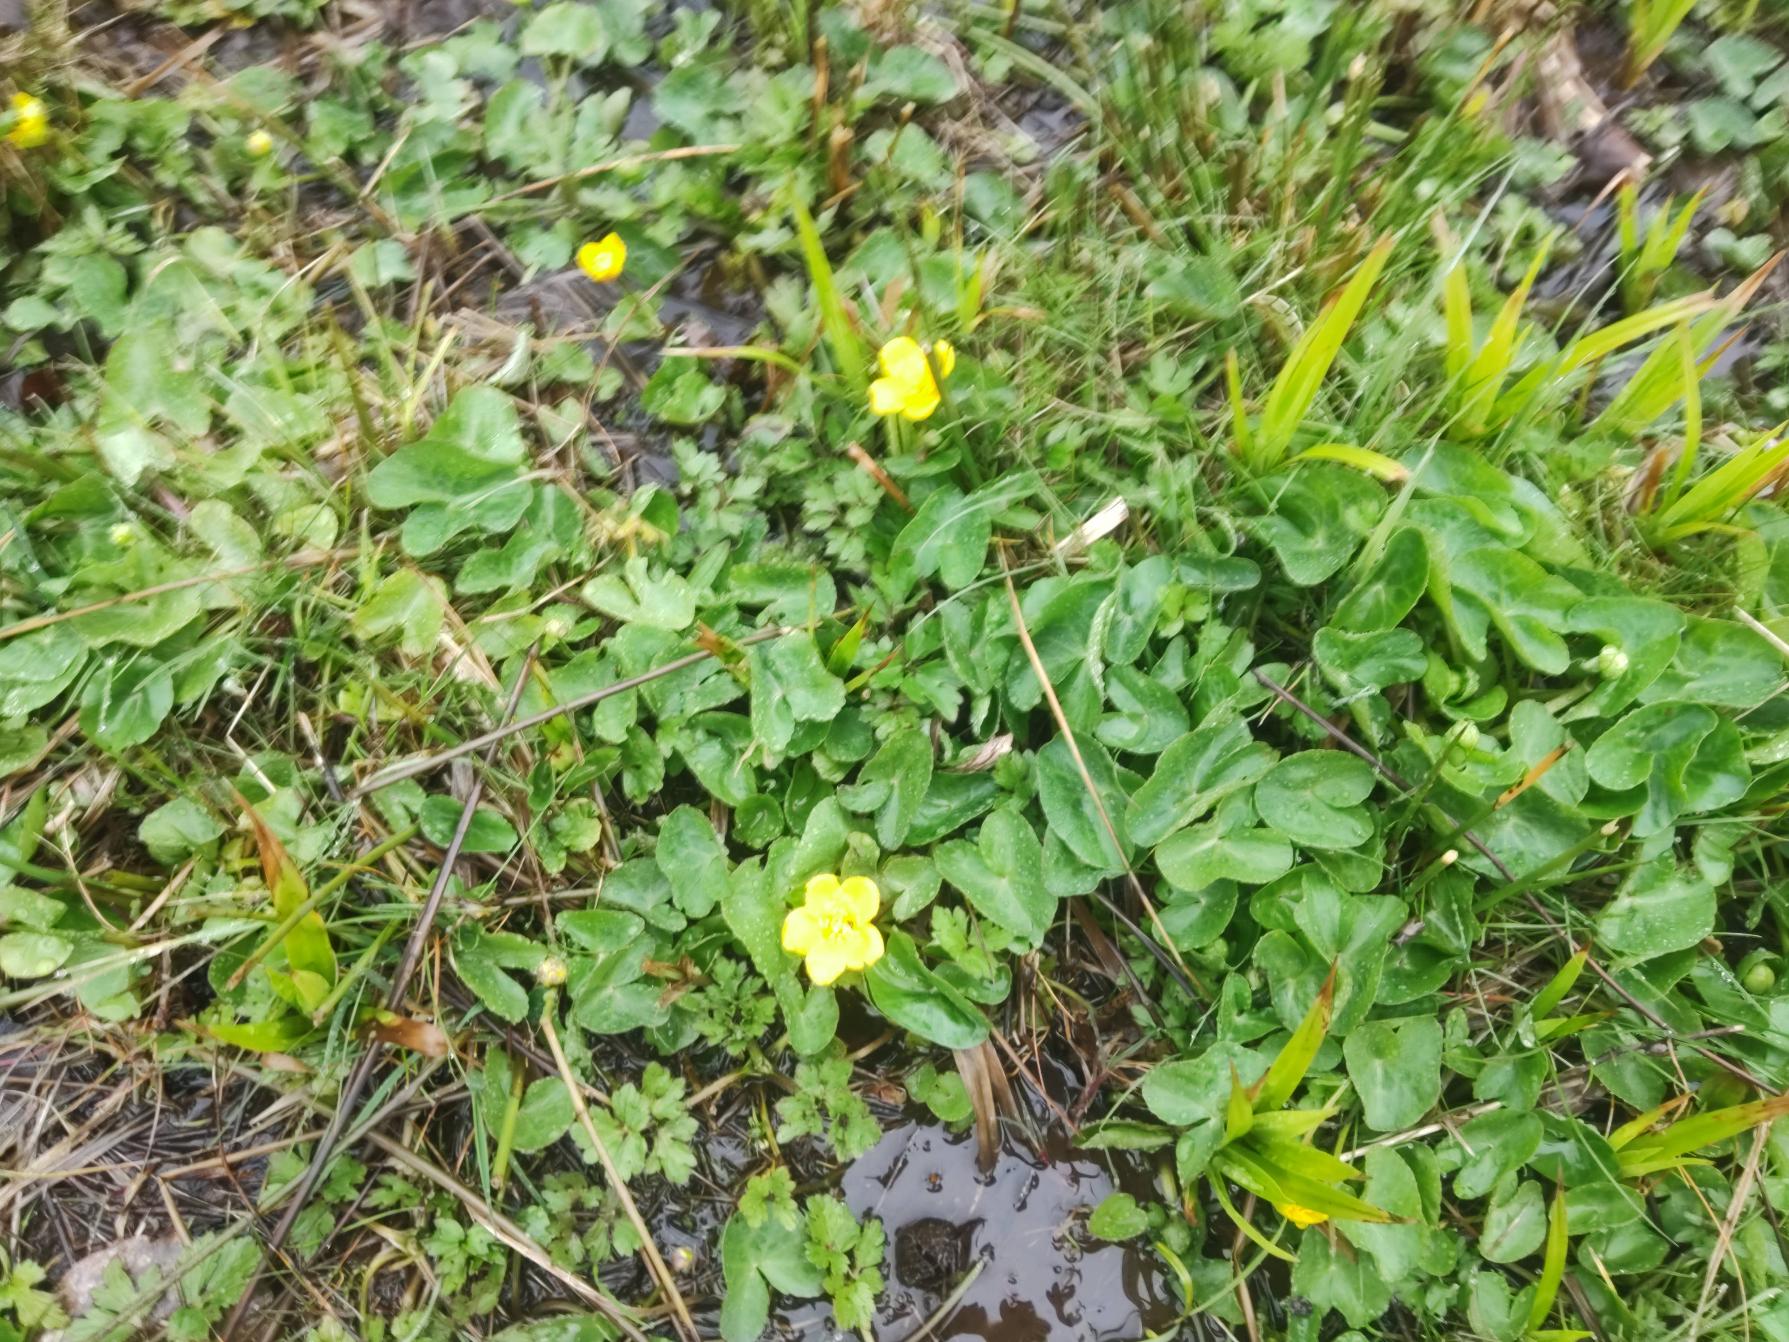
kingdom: Plantae
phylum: Tracheophyta
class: Magnoliopsida
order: Ranunculales
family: Ranunculaceae
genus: Caltha
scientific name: Caltha palustris
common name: Eng-kabbeleje
